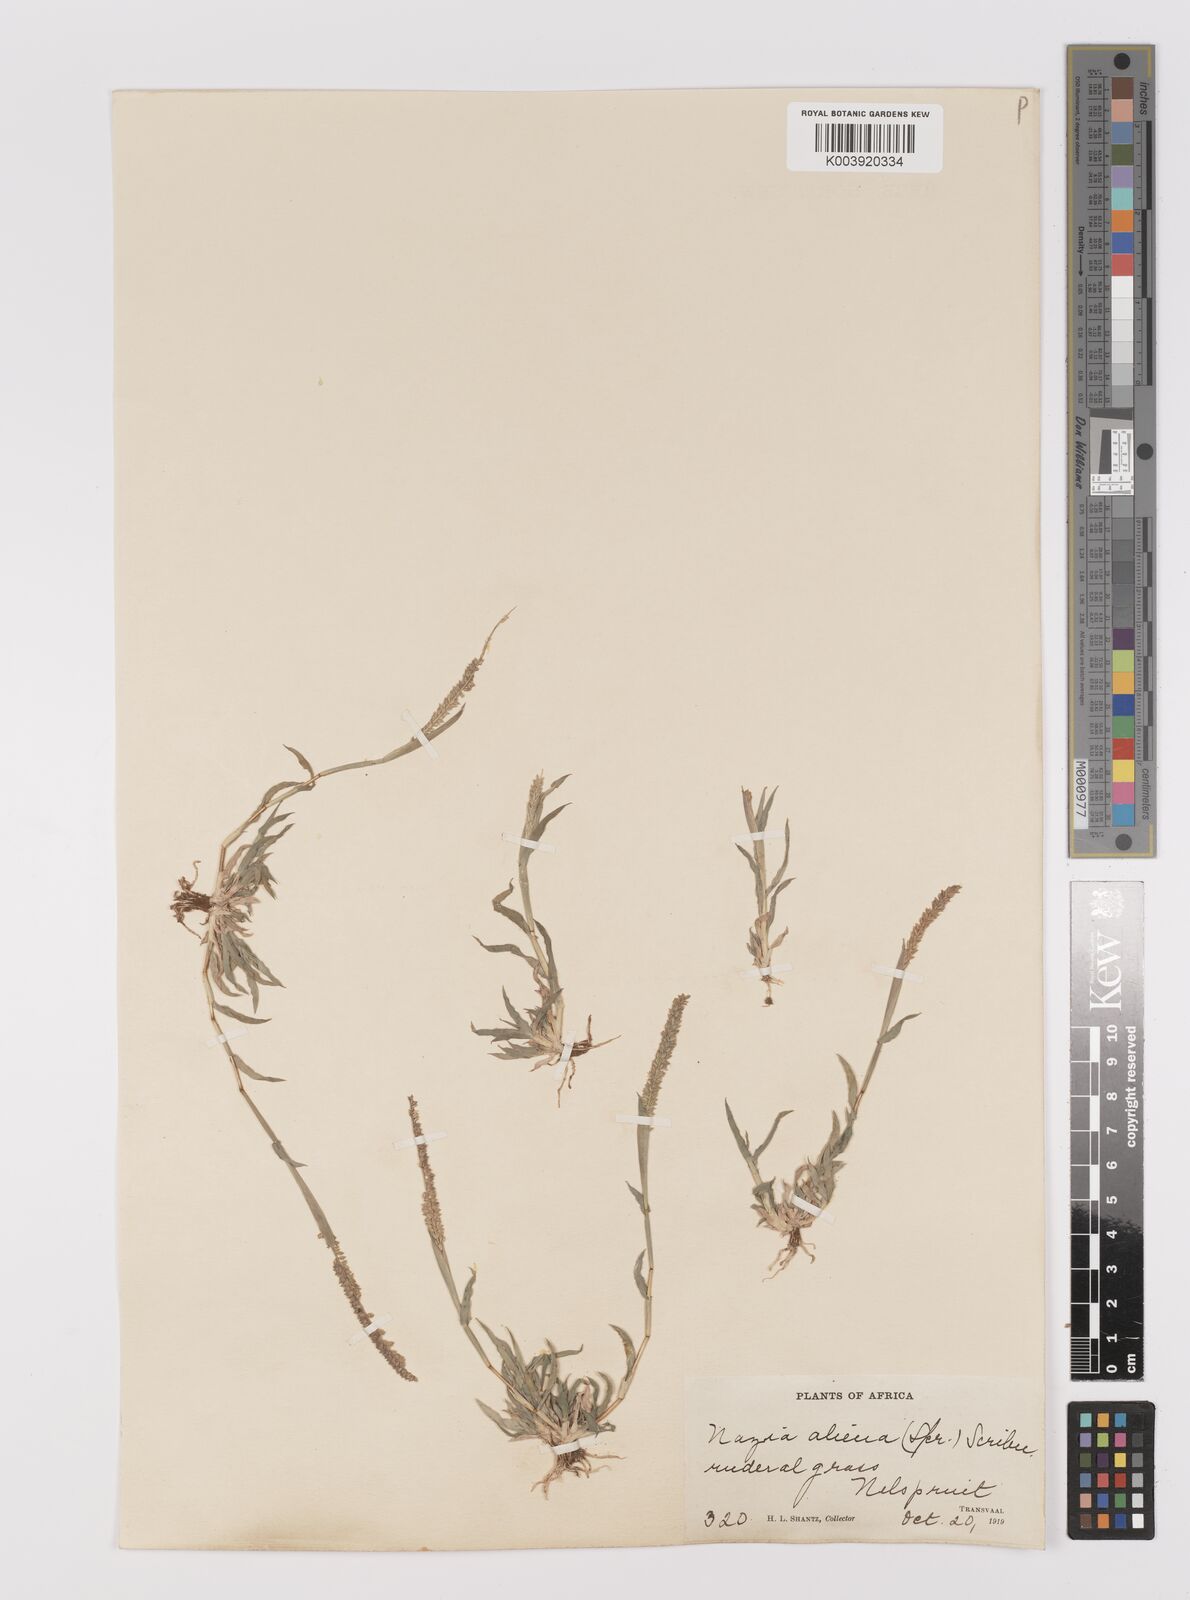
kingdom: Plantae
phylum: Tracheophyta
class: Liliopsida
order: Poales
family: Poaceae
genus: Tragus
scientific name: Tragus berteronianus
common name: African bur-grass
